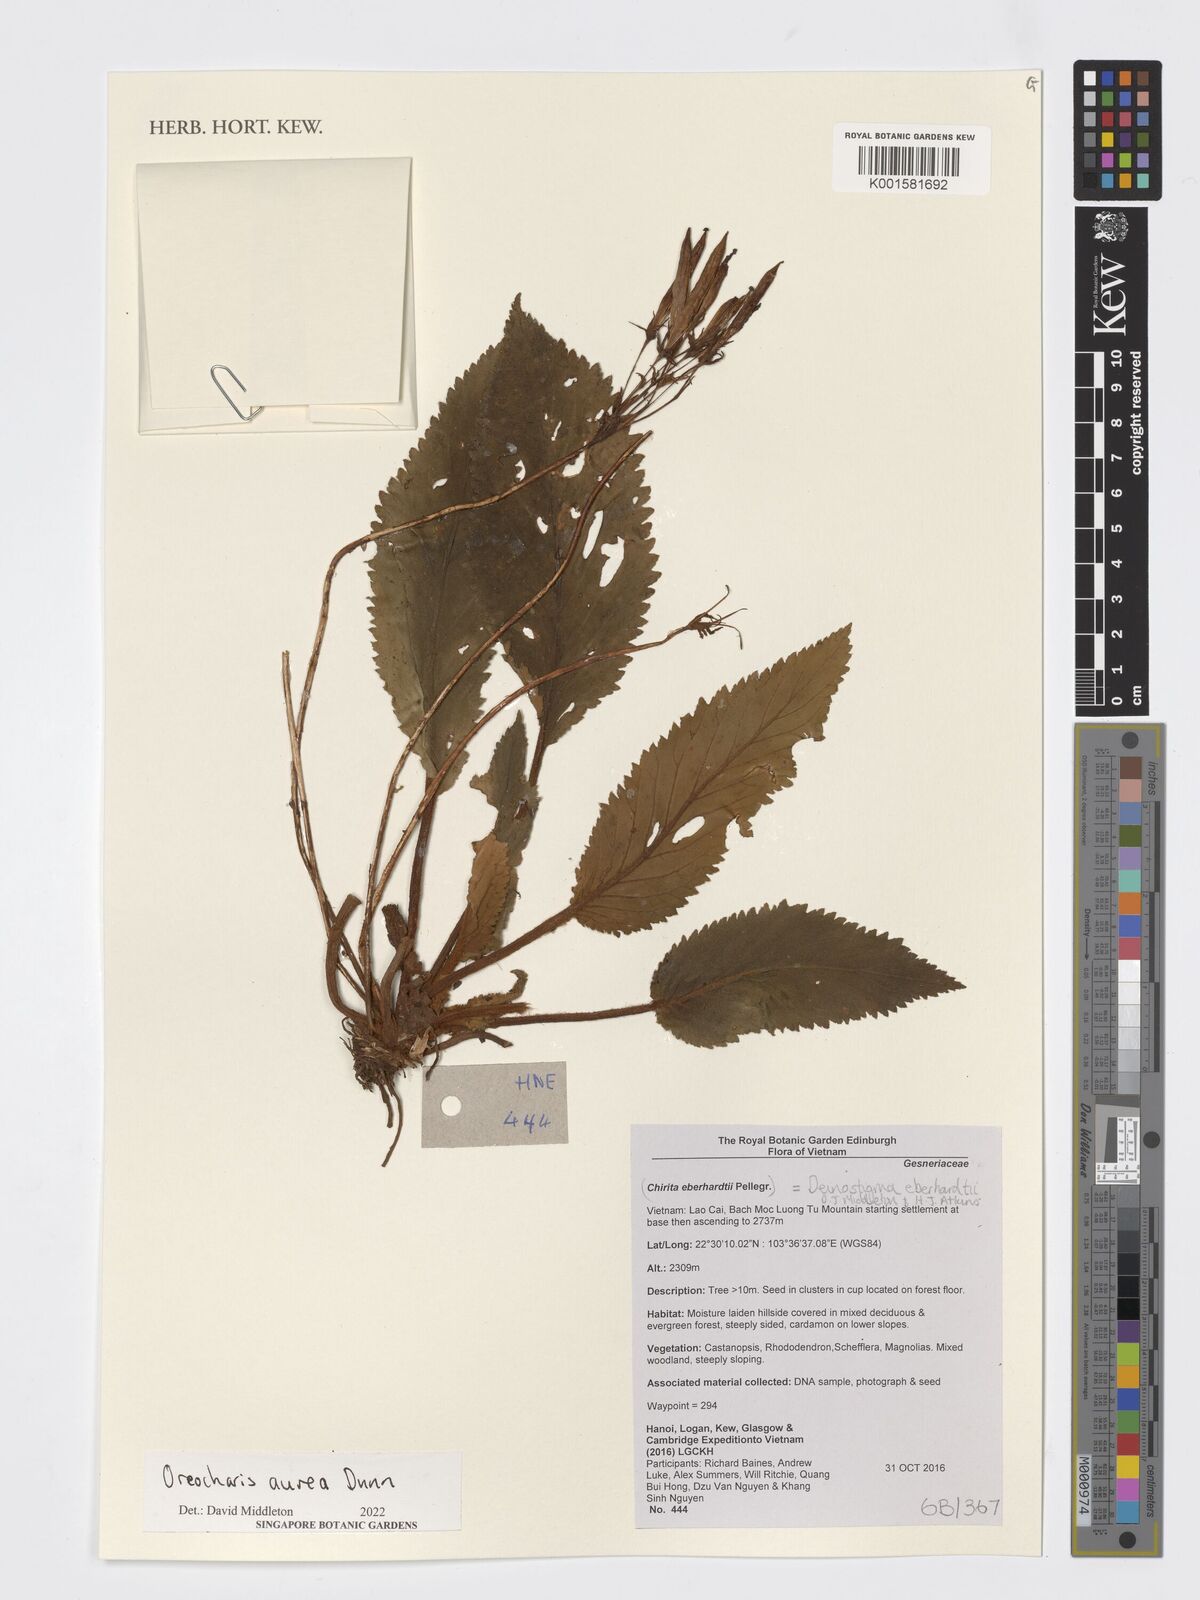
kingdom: Plantae
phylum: Tracheophyta
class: Magnoliopsida
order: Lamiales
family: Gesneriaceae
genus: Oreocharis
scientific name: Oreocharis aurea
